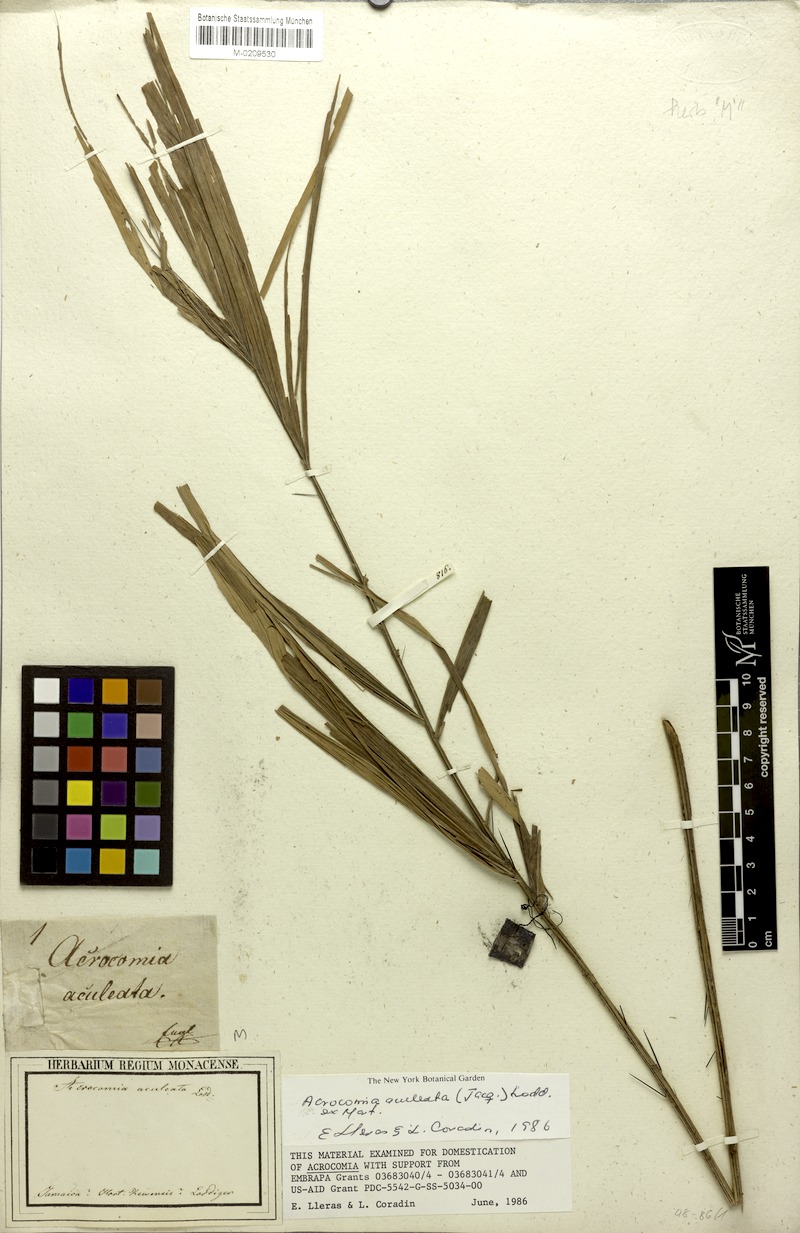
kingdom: Plantae
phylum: Tracheophyta
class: Liliopsida
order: Arecales
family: Arecaceae
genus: Acrocomia
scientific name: Acrocomia aculeata
